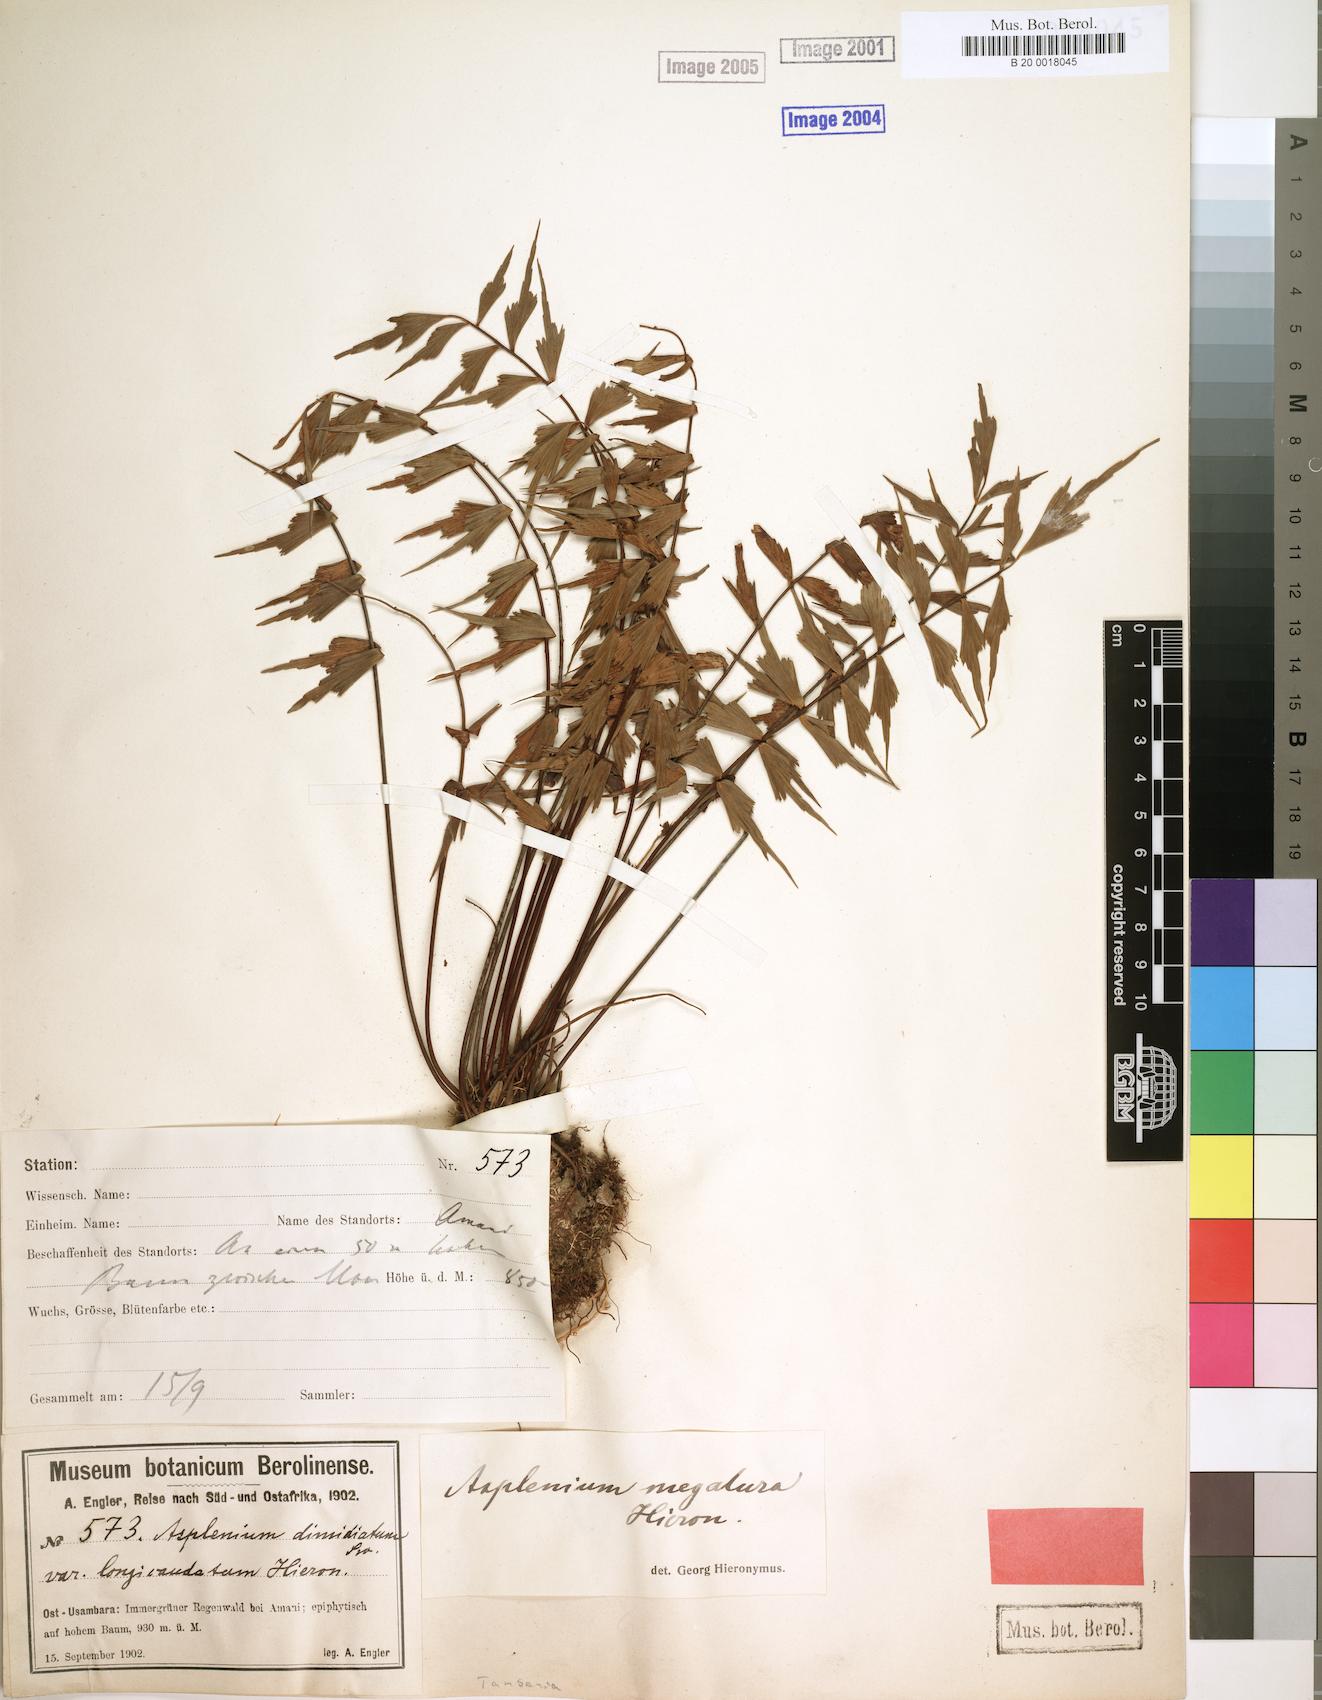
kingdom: Plantae
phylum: Tracheophyta
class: Polypodiopsida
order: Polypodiales
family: Aspleniaceae
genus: Asplenium
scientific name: Asplenium megalura
